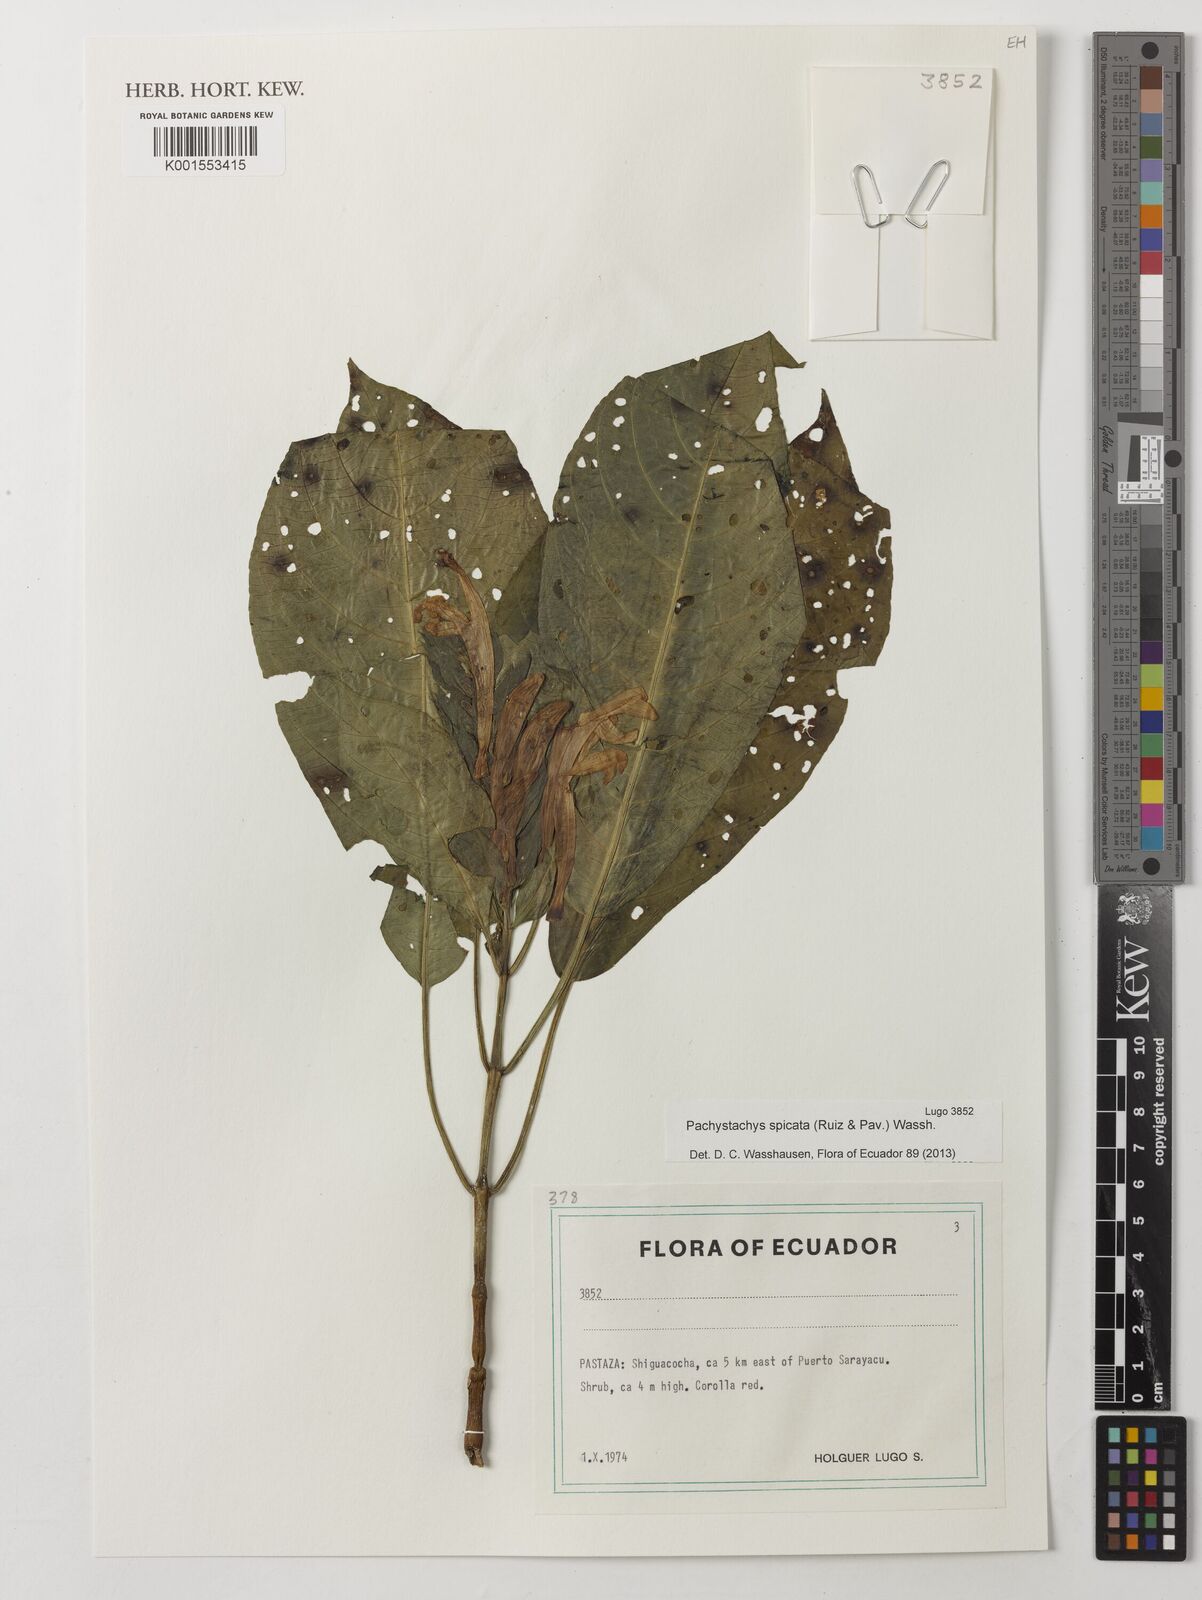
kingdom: Plantae
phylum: Tracheophyta
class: Magnoliopsida
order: Lamiales
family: Acanthaceae
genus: Pachystachys
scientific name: Pachystachys spicata
